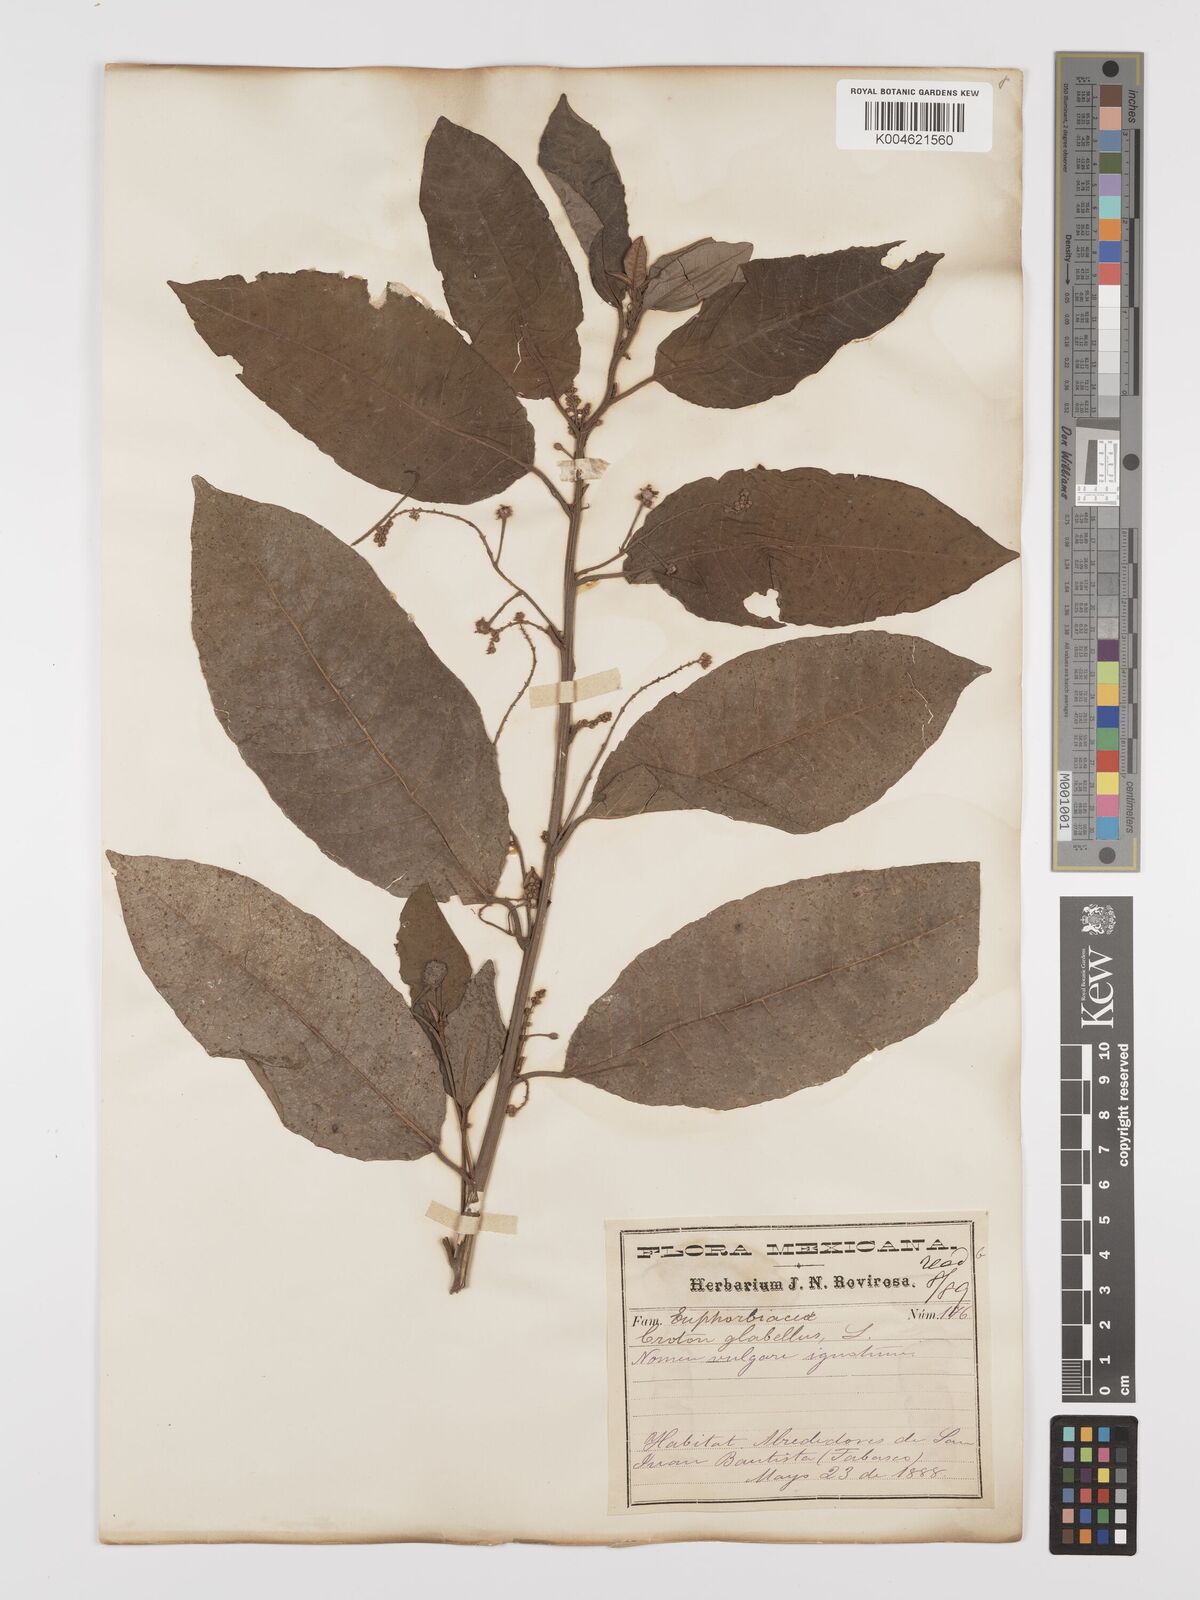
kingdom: Plantae
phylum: Tracheophyta
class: Magnoliopsida
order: Malpighiales
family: Euphorbiaceae
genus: Croton
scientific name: Croton glabellus
